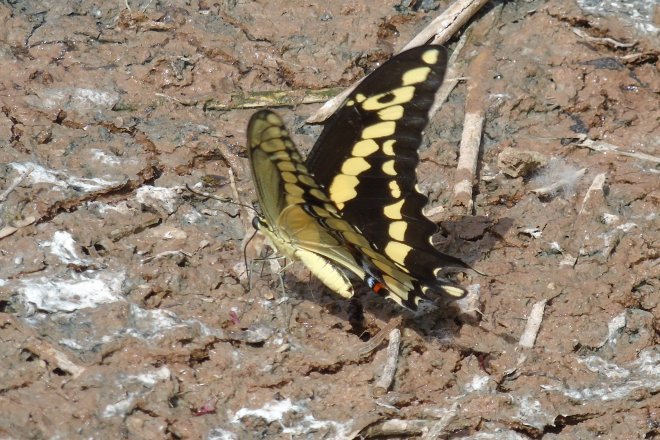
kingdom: Animalia
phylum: Arthropoda
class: Insecta
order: Lepidoptera
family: Papilionidae
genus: Papilio
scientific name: Papilio rumiko
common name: Western Giant Swallowtail
